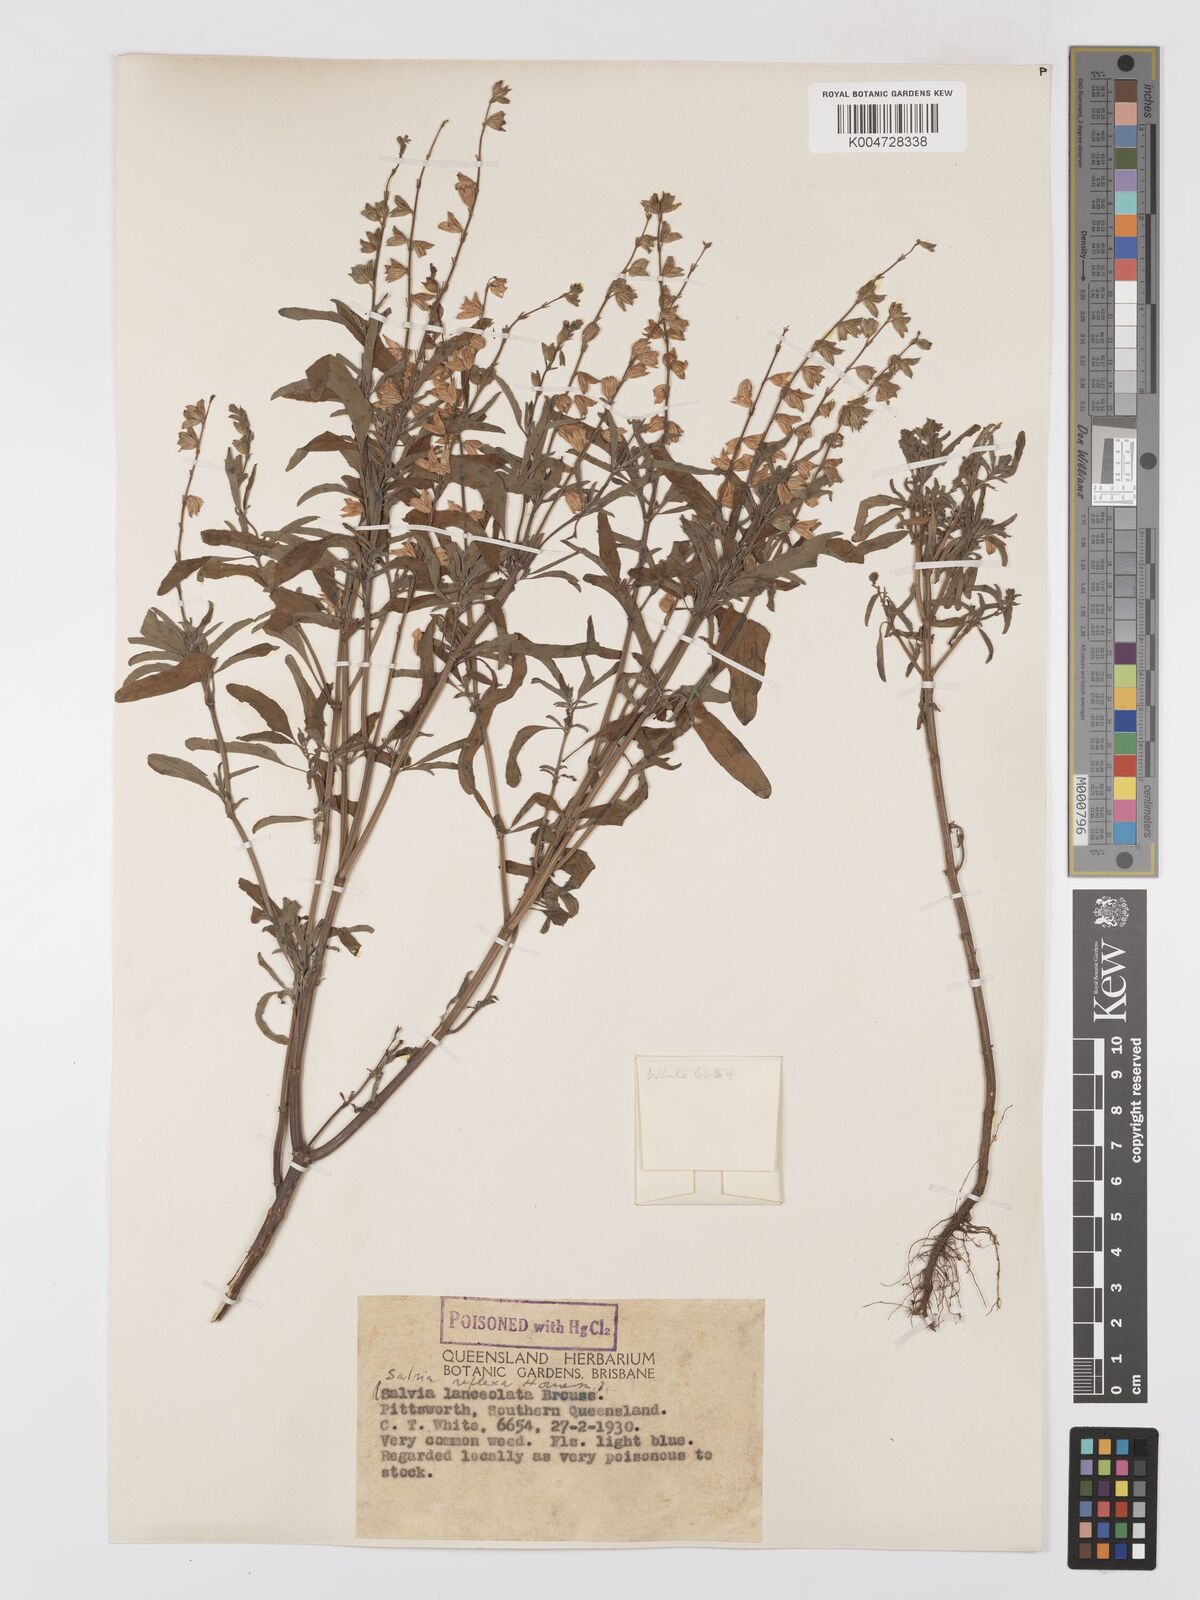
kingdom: Plantae
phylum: Tracheophyta
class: Magnoliopsida
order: Lamiales
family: Lamiaceae
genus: Salvia
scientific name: Salvia reflexa
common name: Mintweed
